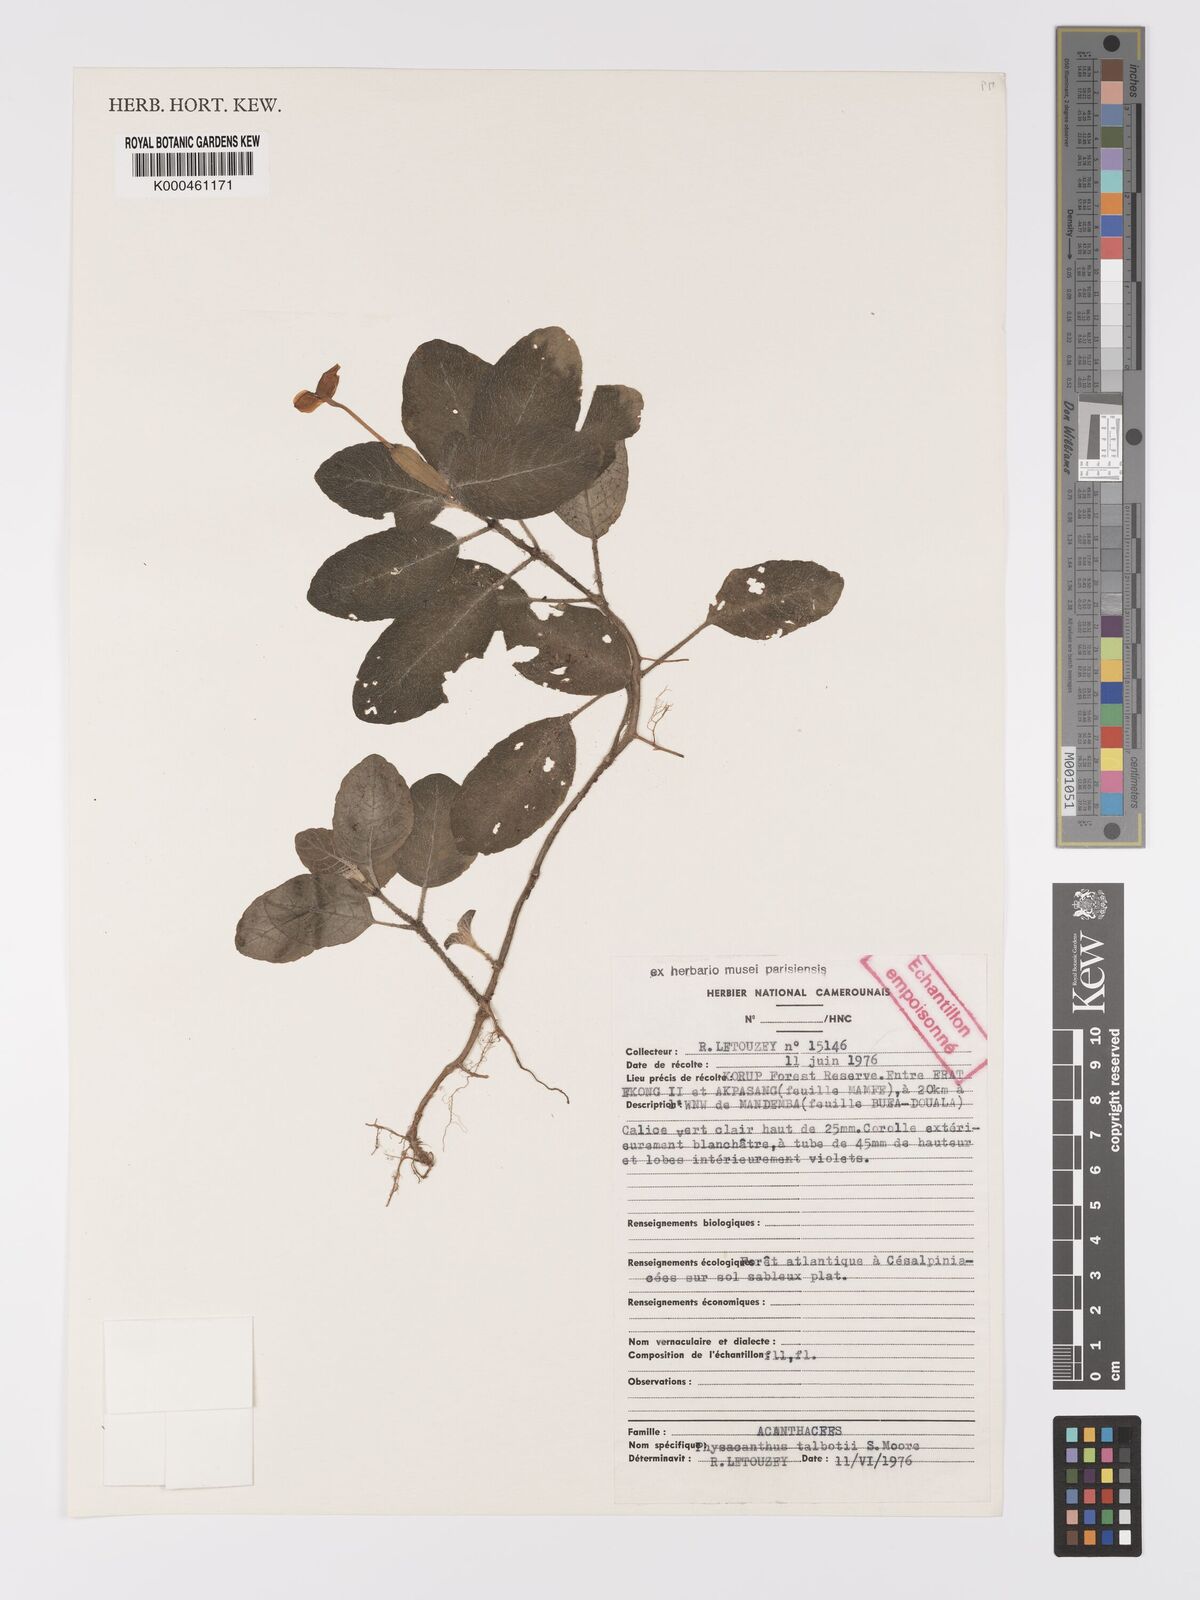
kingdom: Plantae
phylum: Tracheophyta
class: Magnoliopsida
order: Lamiales
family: Acanthaceae
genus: Physacanthus
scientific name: Physacanthus talbotii
